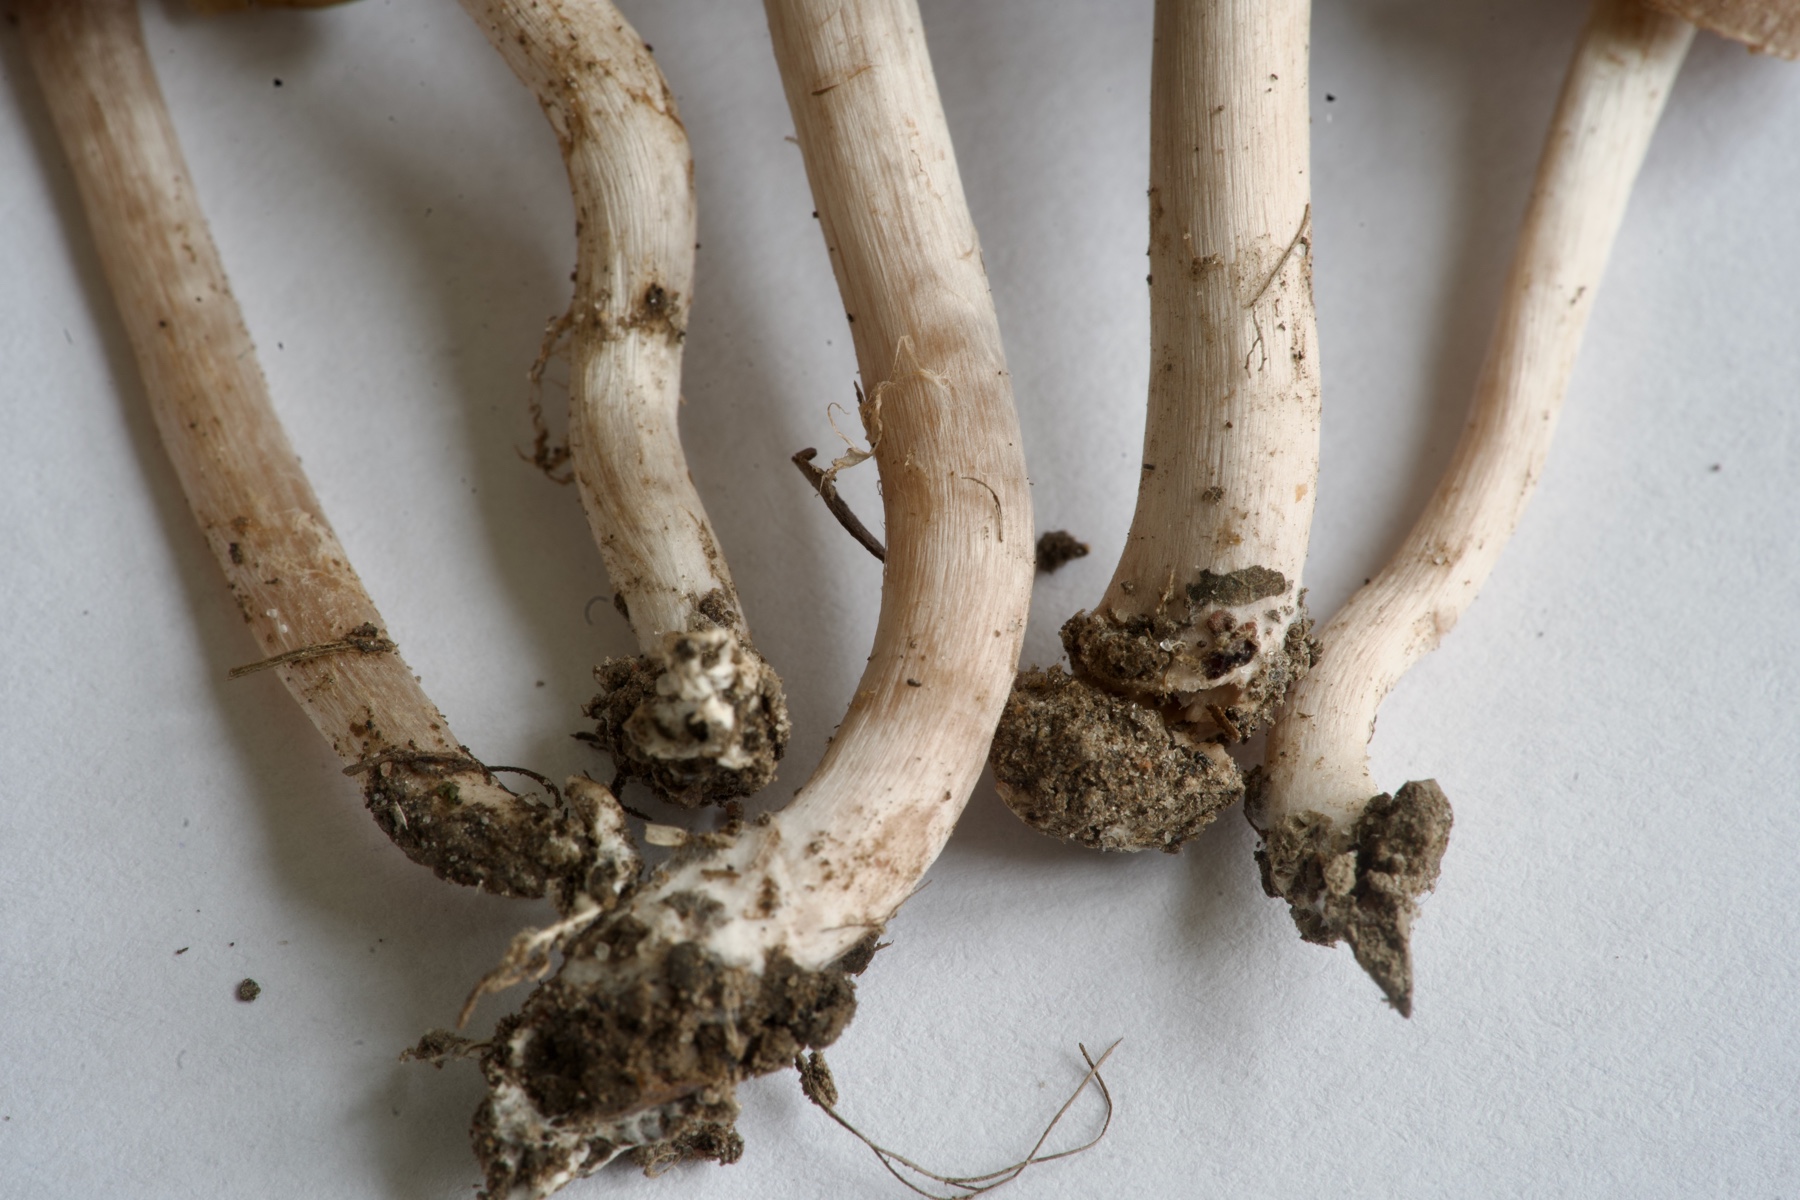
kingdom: Fungi
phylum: Basidiomycota
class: Agaricomycetes
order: Agaricales
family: Cortinariaceae
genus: Cortinarius
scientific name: Cortinarius auroripes
